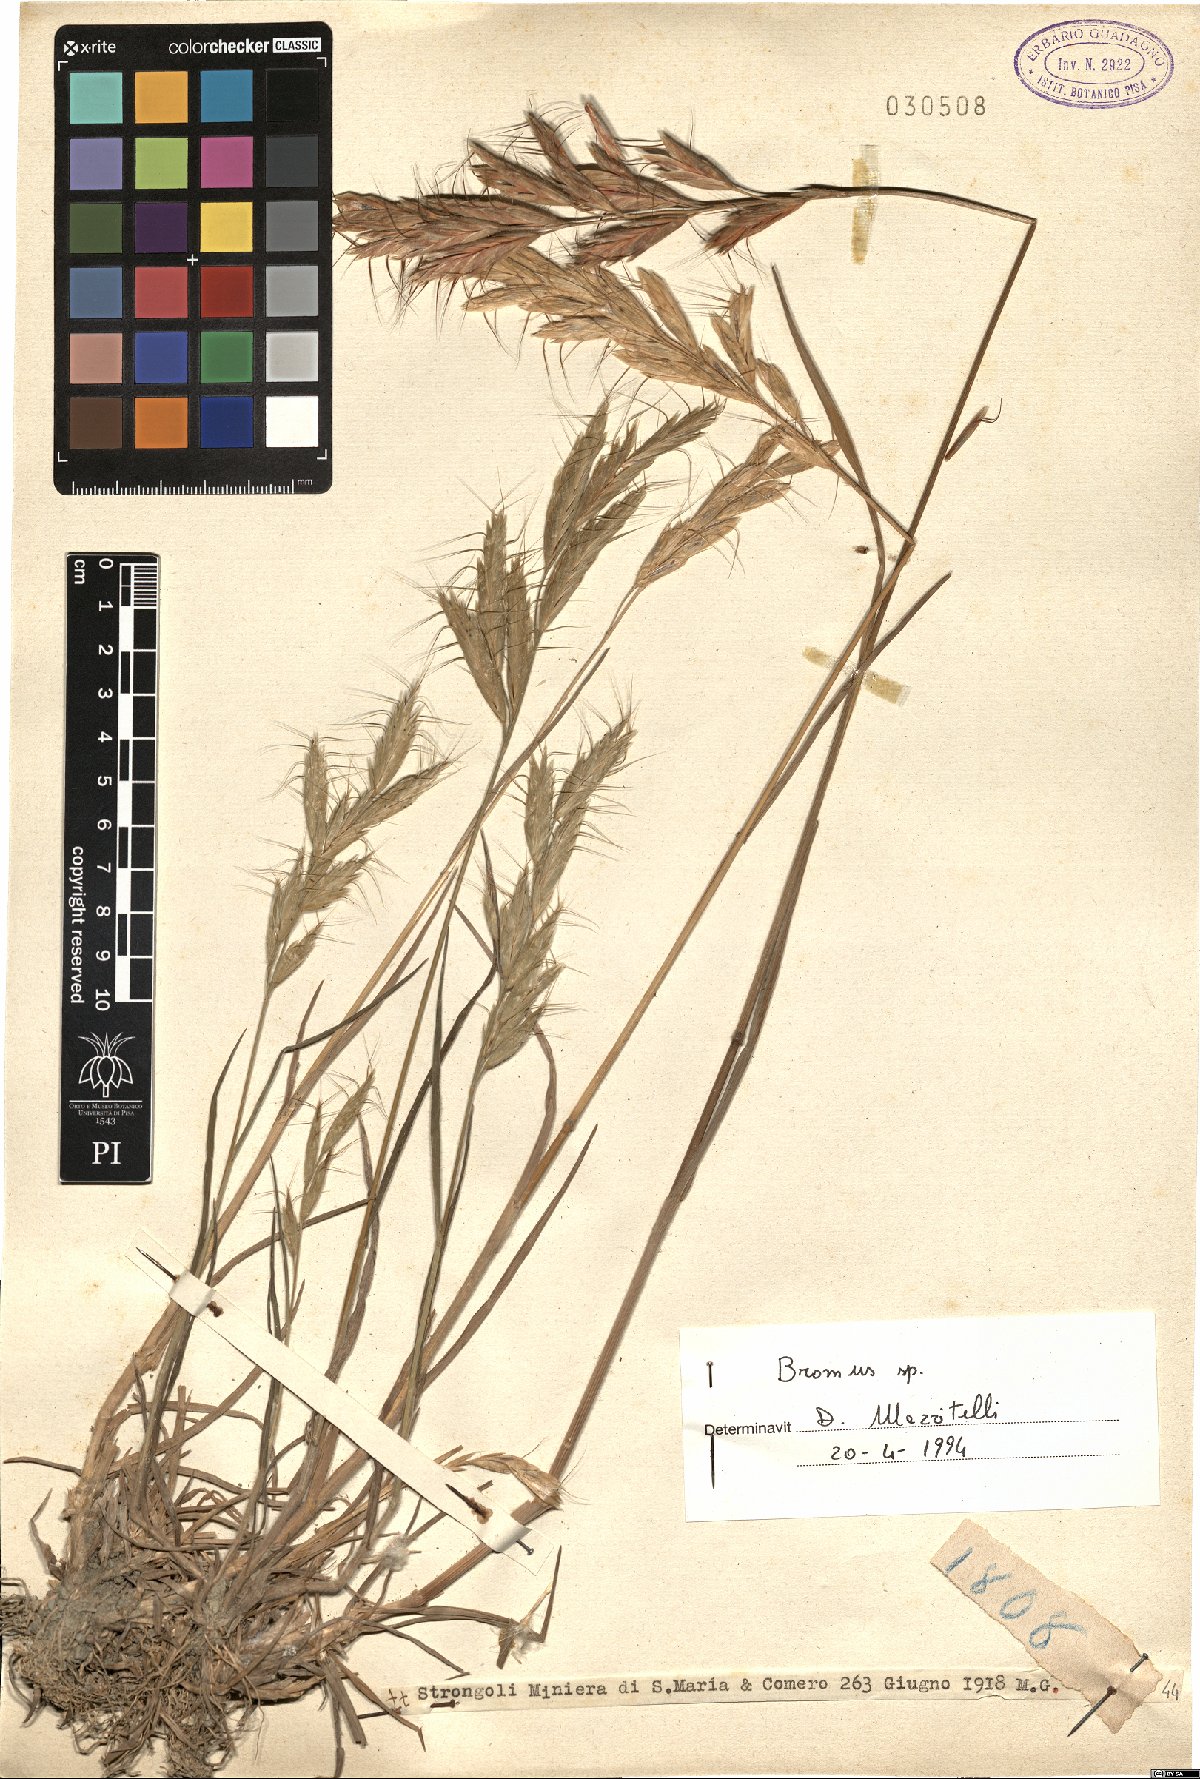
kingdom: Plantae
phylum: Tracheophyta
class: Liliopsida
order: Poales
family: Poaceae
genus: Bromus
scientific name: Bromus
